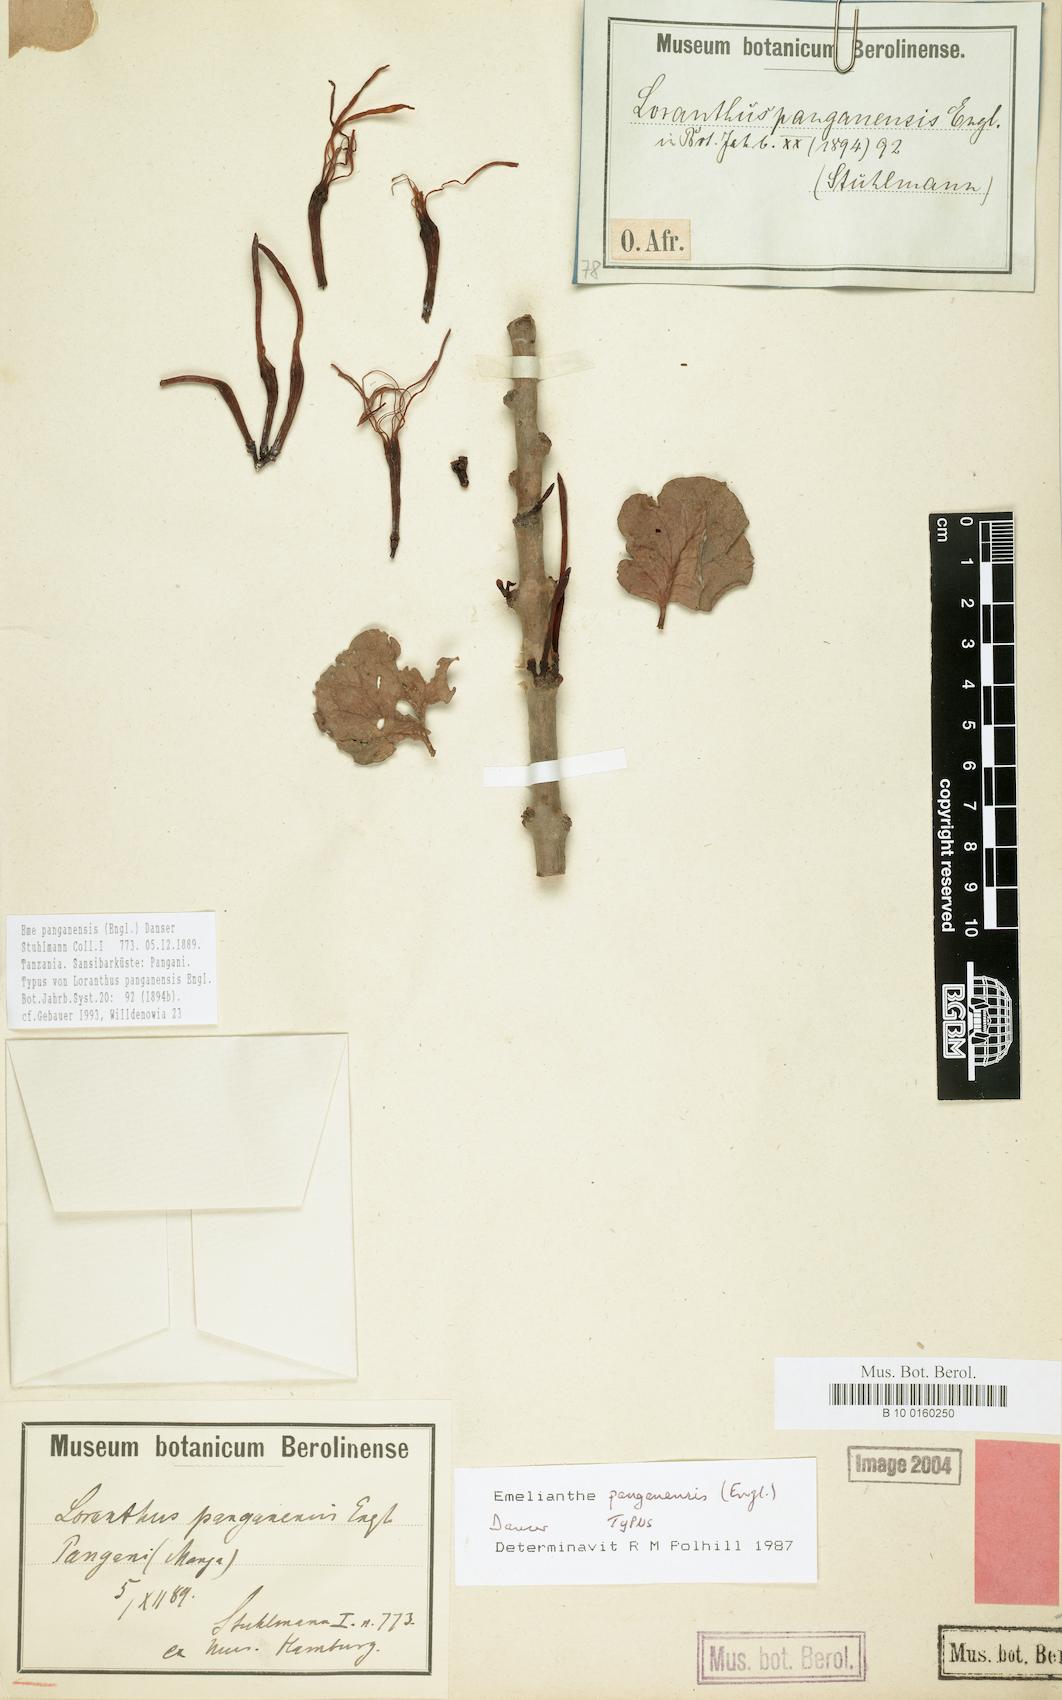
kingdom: Plantae
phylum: Tracheophyta
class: Magnoliopsida
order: Santalales
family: Loranthaceae
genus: Emelianthe
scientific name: Emelianthe panganensis
